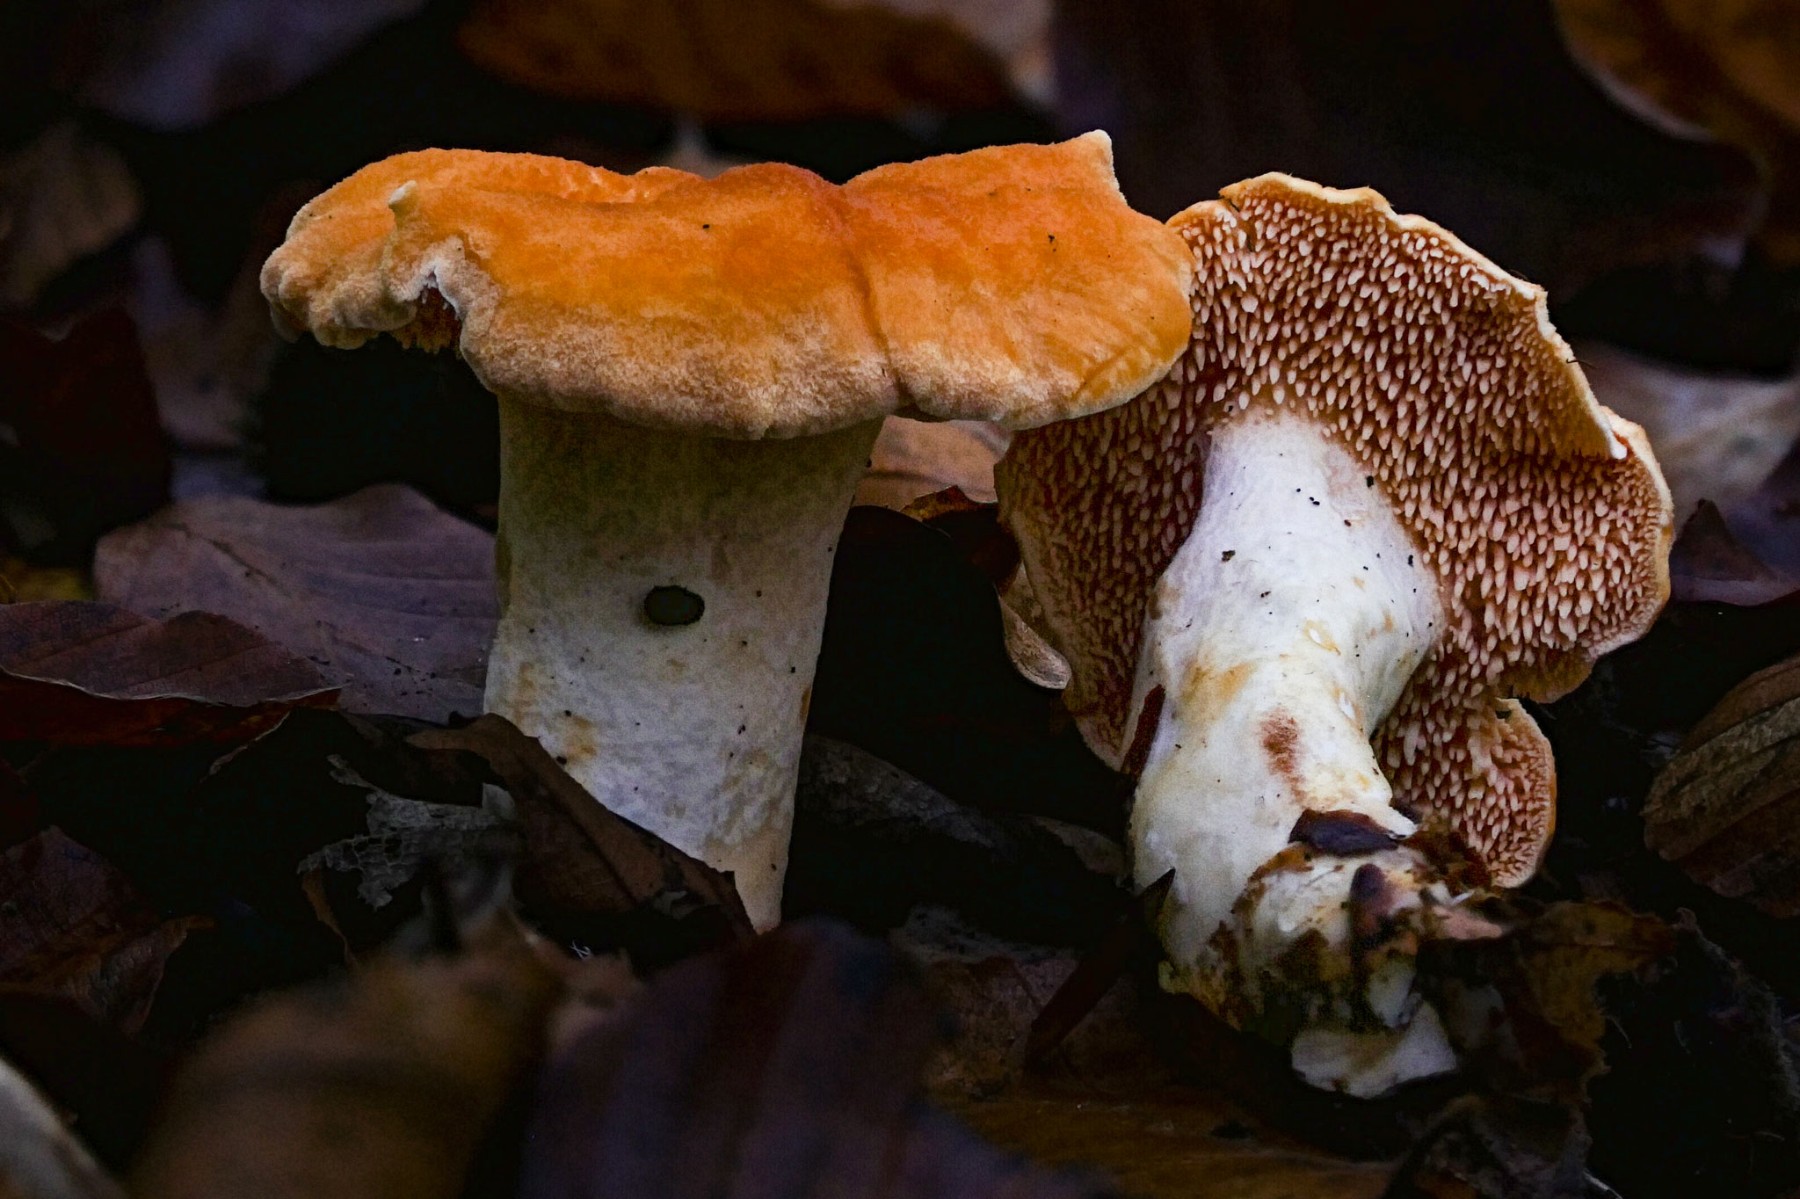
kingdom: Fungi
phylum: Basidiomycota
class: Agaricomycetes
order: Cantharellales
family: Hydnaceae
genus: Hydnum
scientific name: Hydnum
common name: pigsvamp
